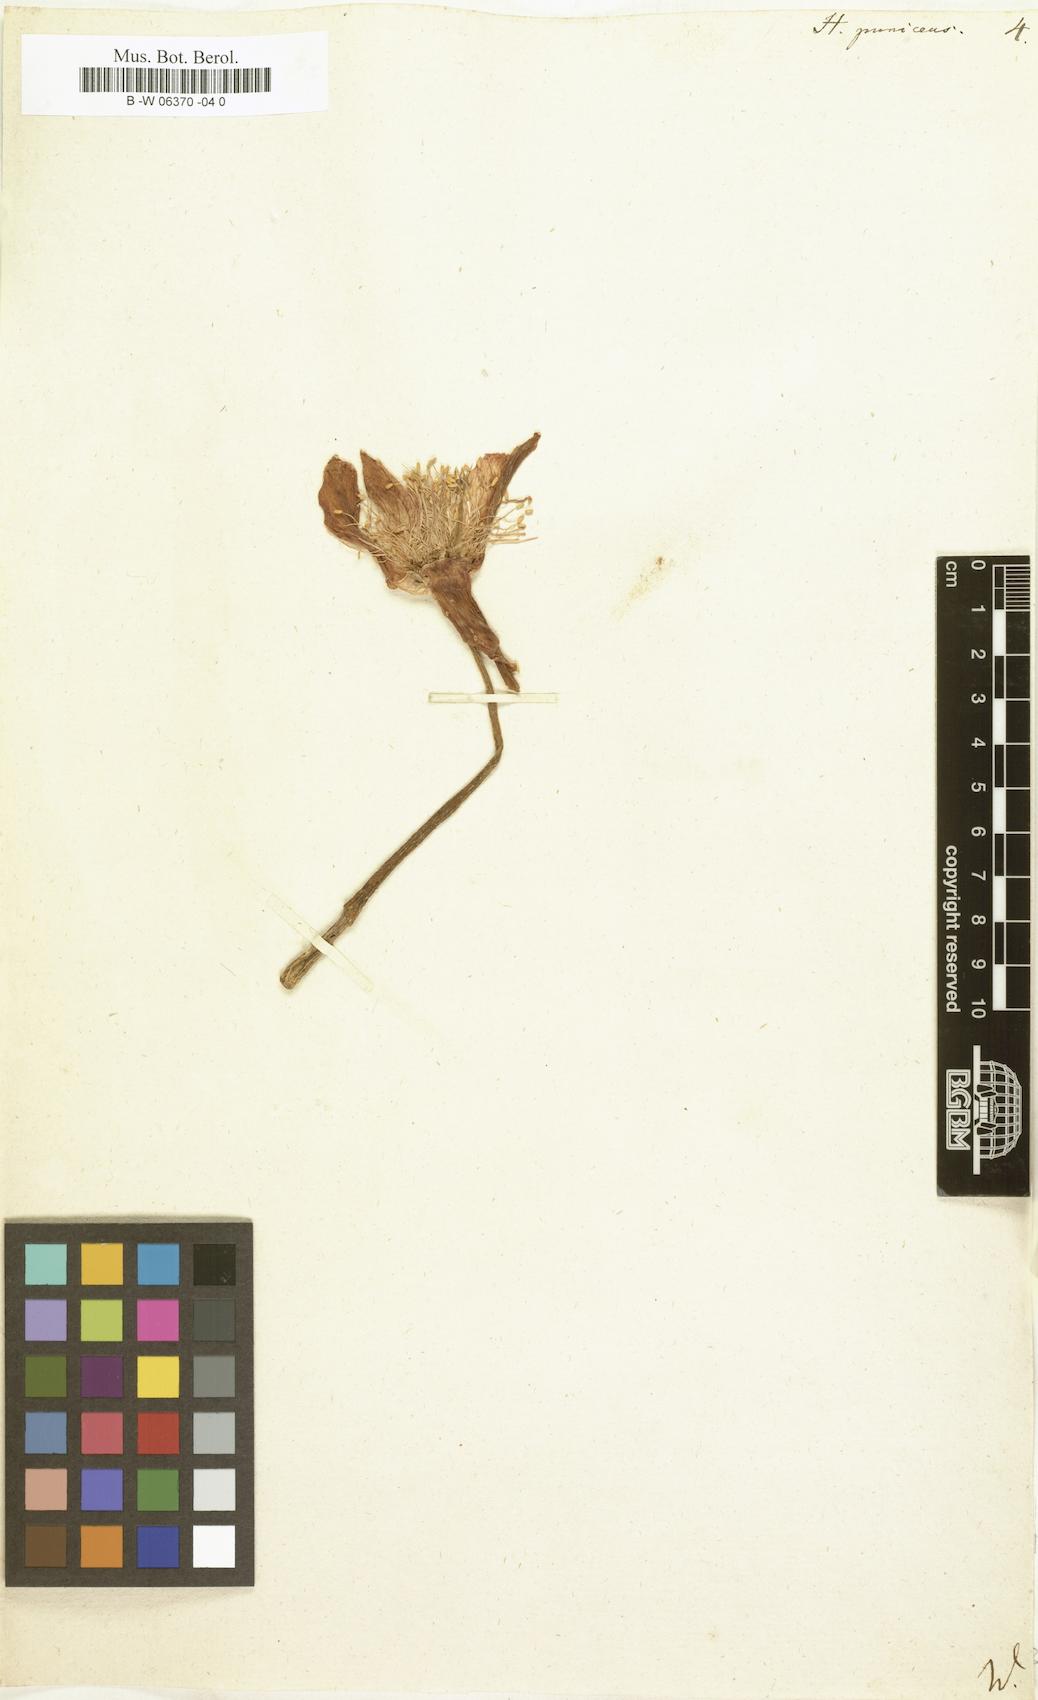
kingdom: Plantae
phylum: Tracheophyta
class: Liliopsida
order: Asparagales
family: Amaryllidaceae
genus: Scadoxus
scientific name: Scadoxus puniceus
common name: Royal-paintbrush
